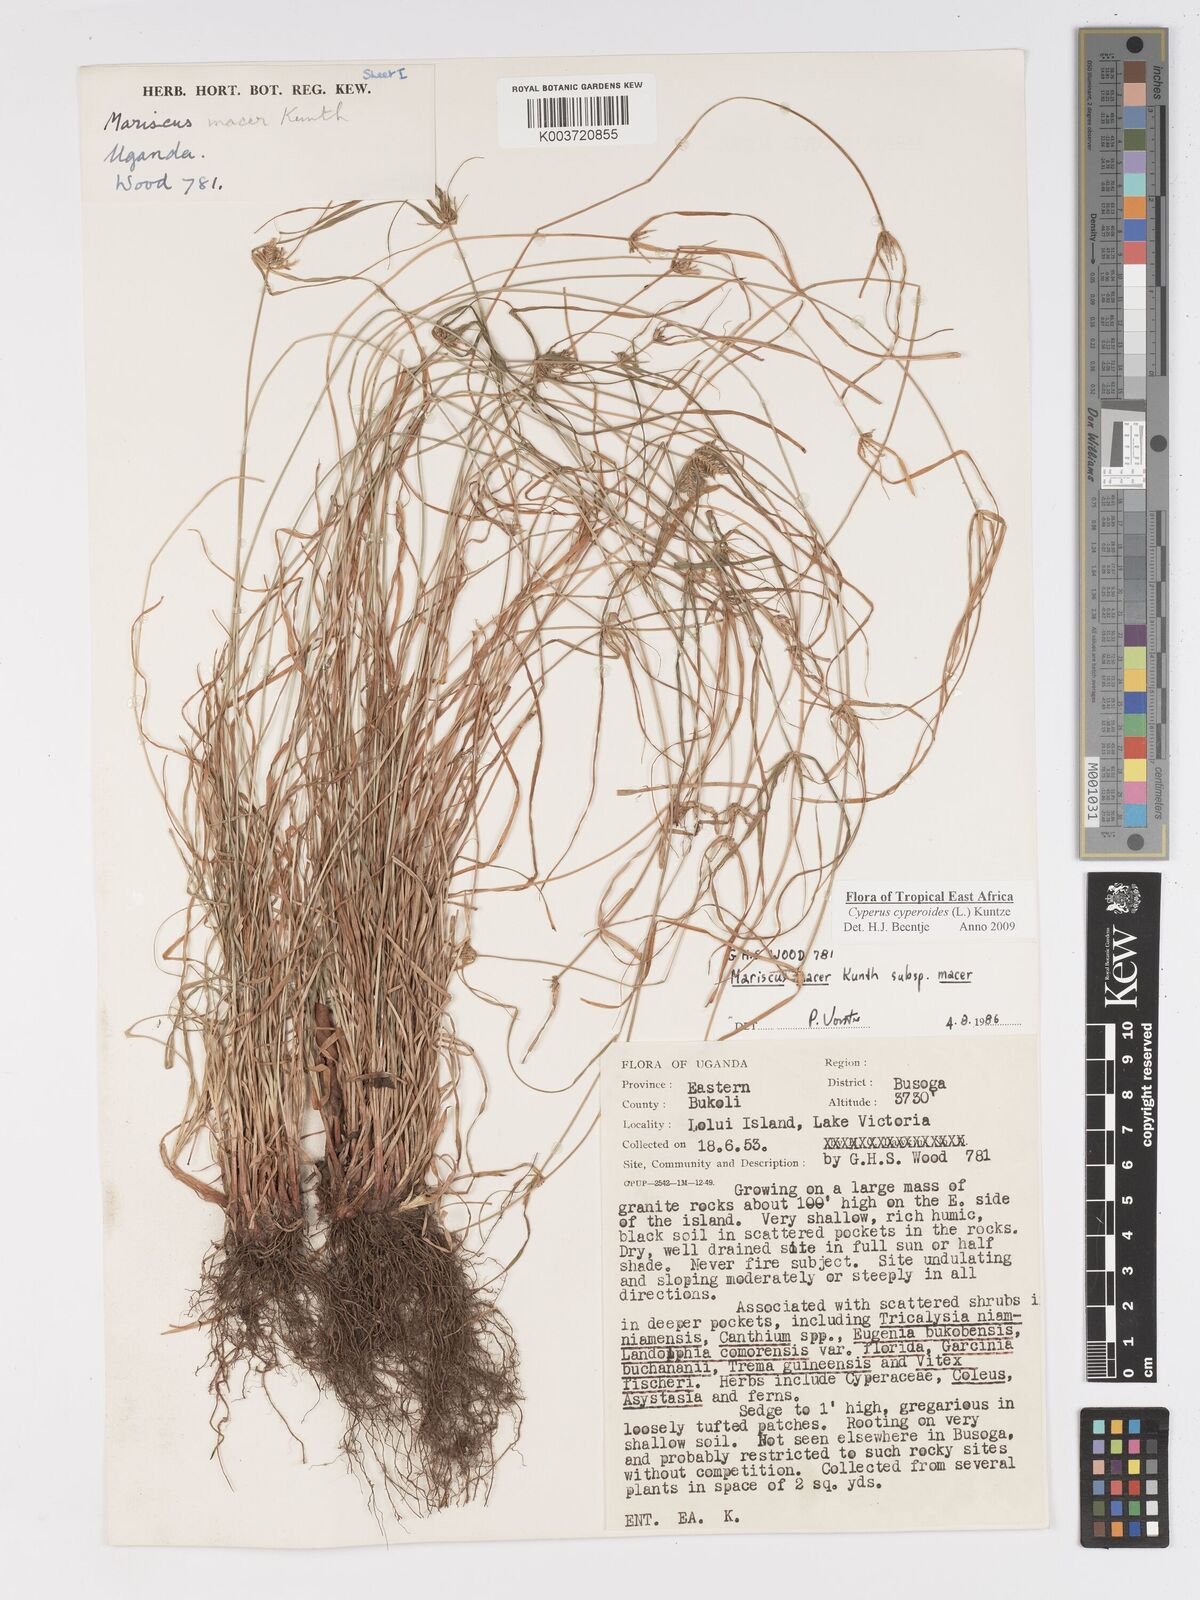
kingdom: Plantae
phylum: Tracheophyta
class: Liliopsida
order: Poales
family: Cyperaceae
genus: Cyperus
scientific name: Cyperus pseudoflavus
